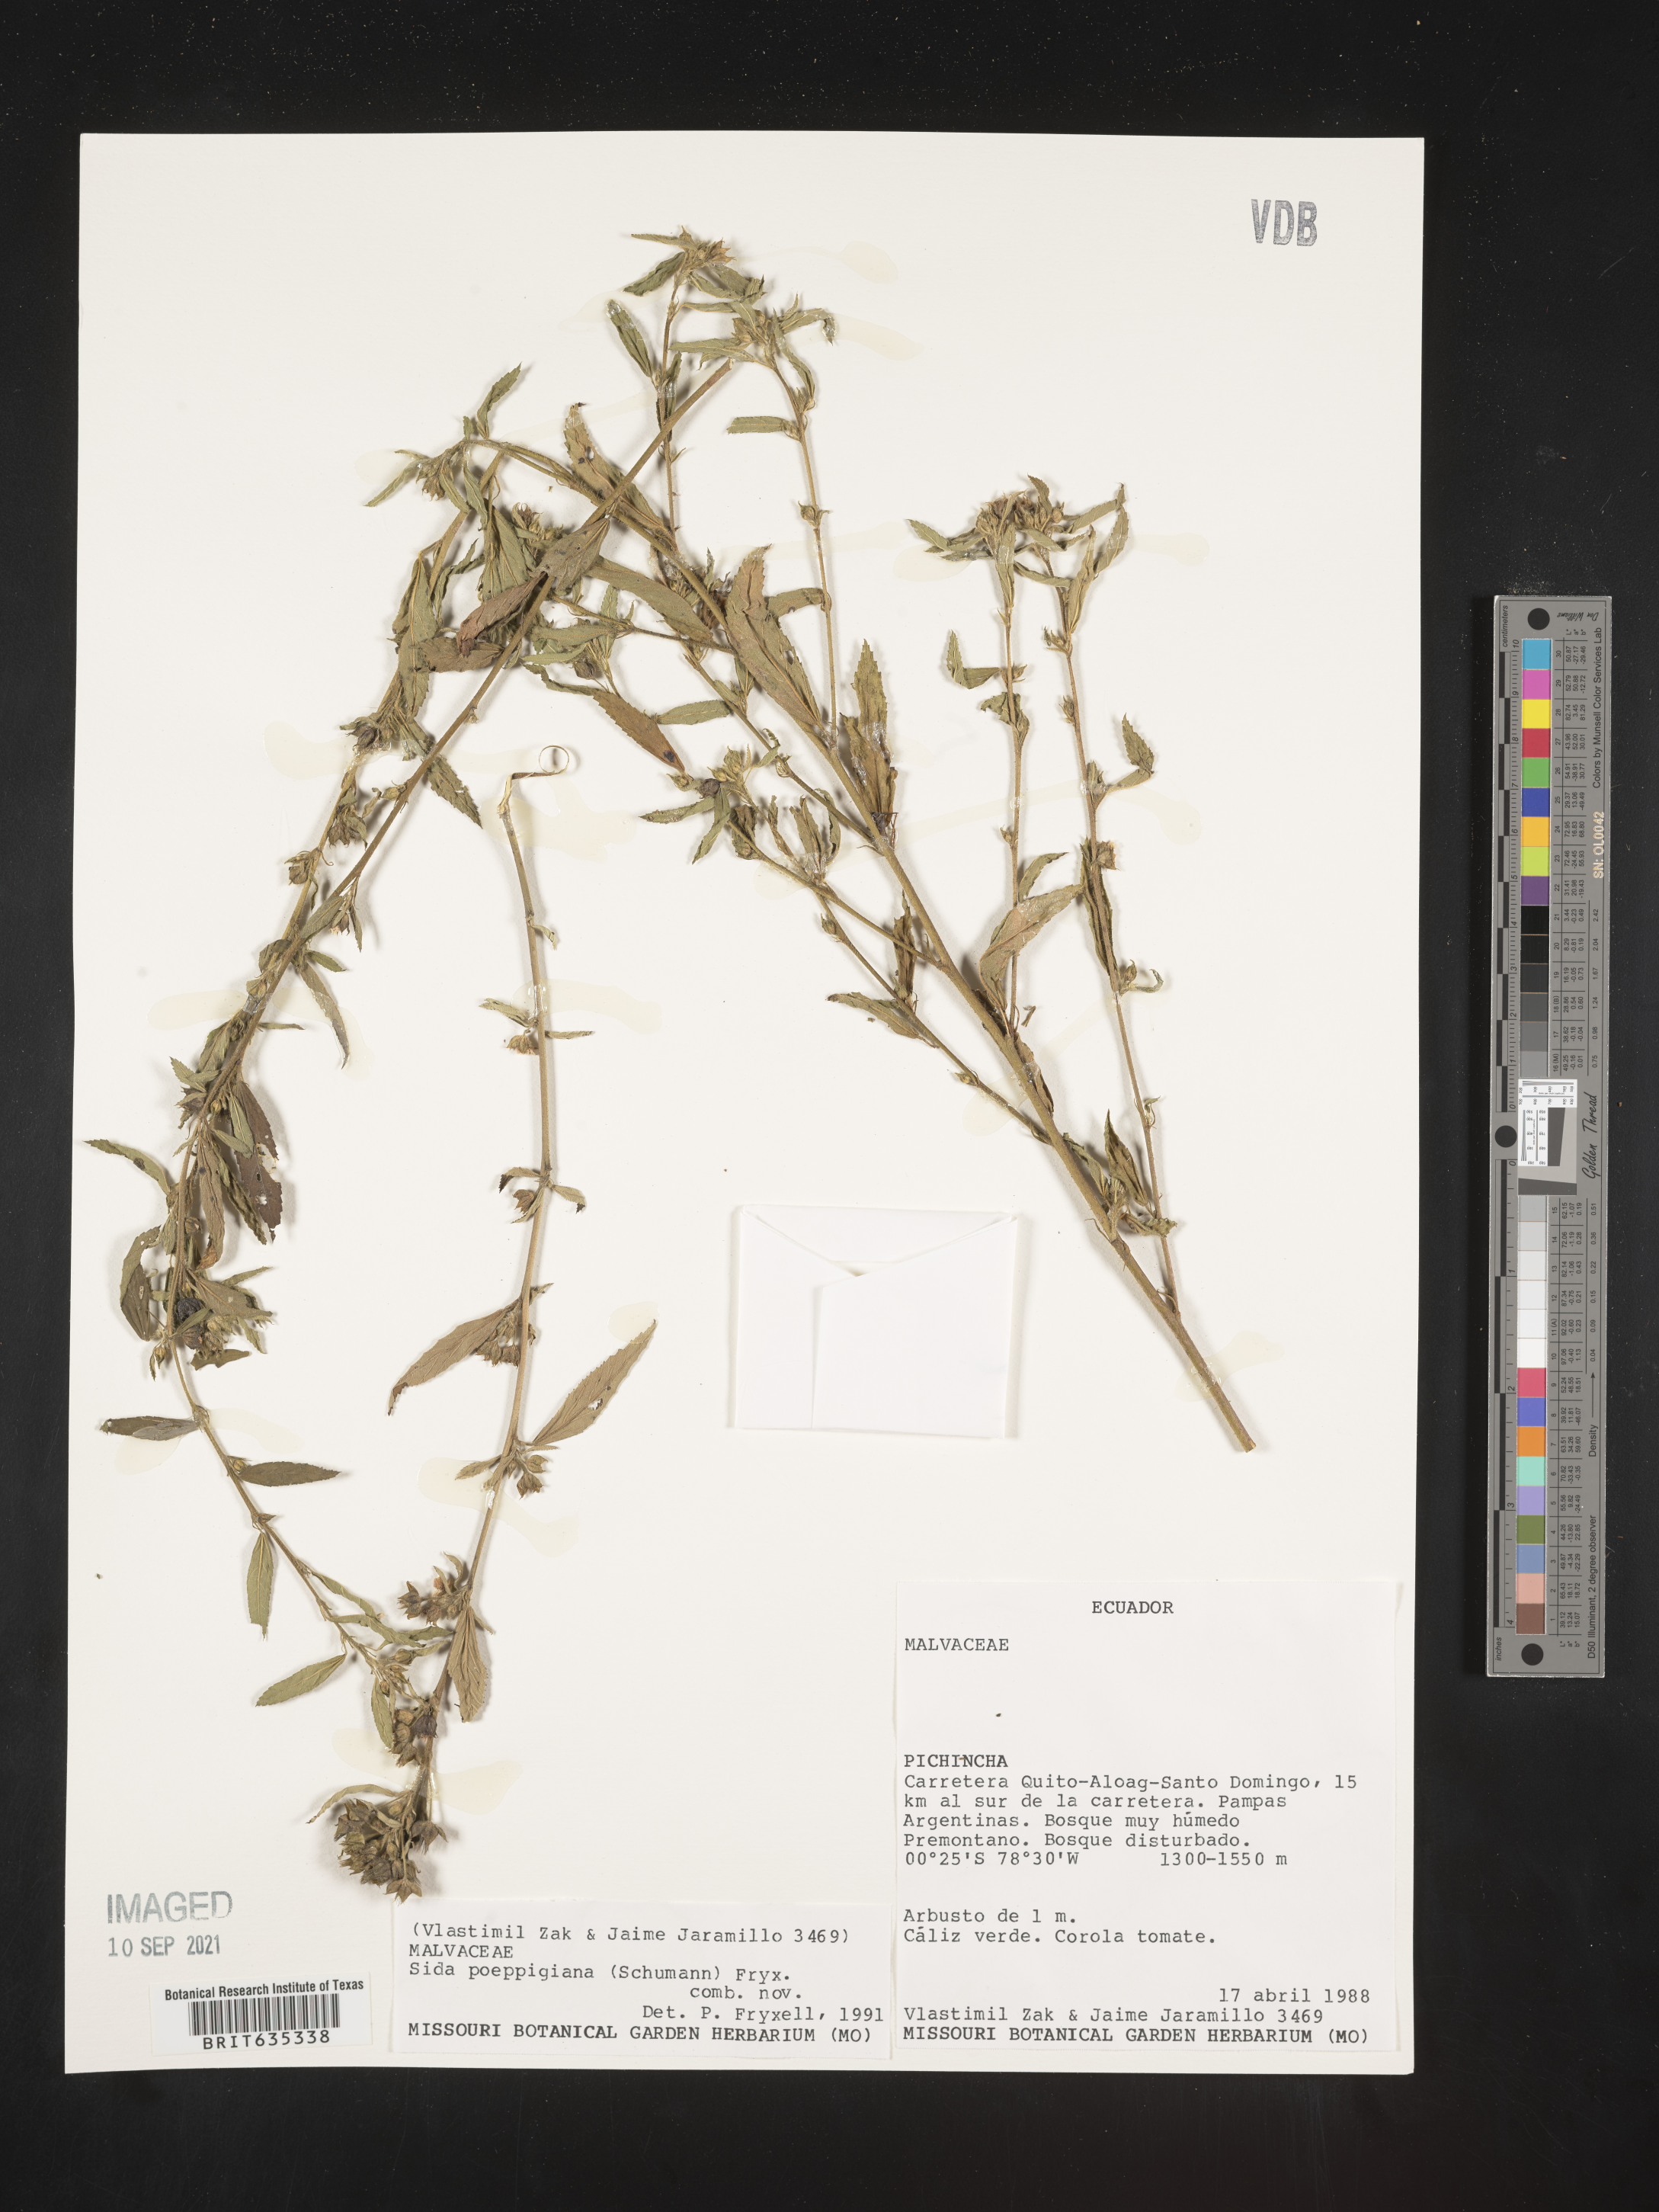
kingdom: Plantae
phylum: Tracheophyta
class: Magnoliopsida
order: Malvales
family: Malvaceae
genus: Sida
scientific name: Sida
